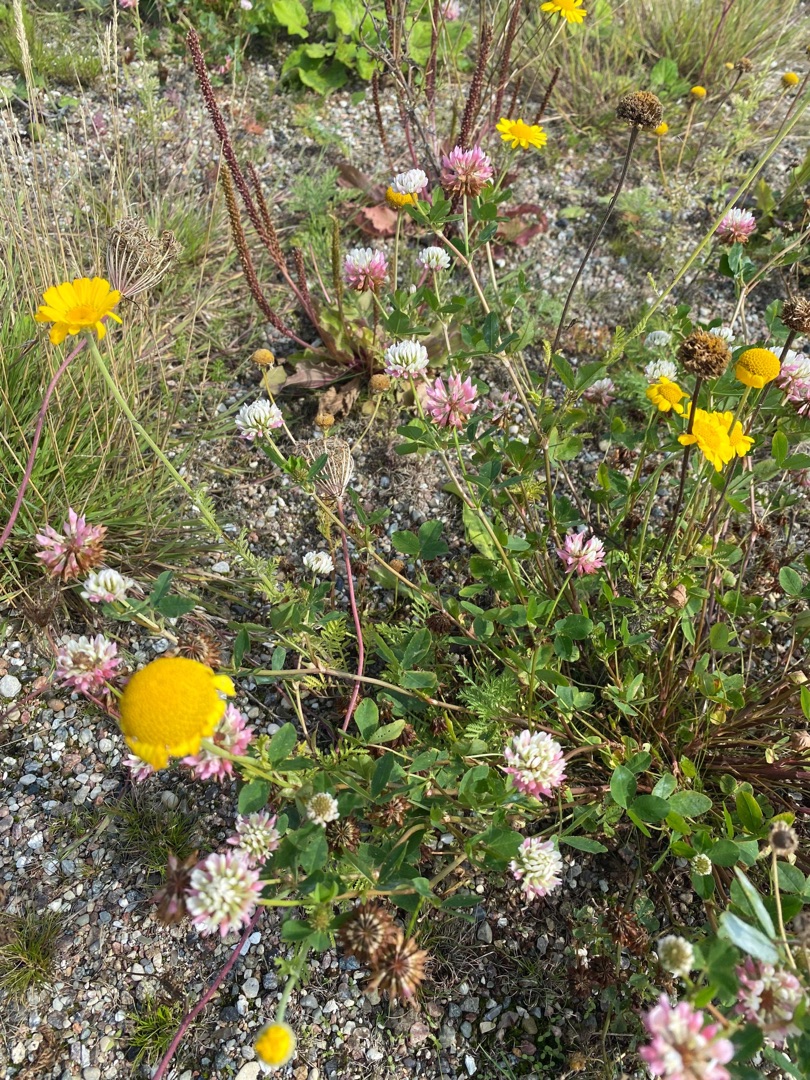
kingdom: Plantae
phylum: Tracheophyta
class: Magnoliopsida
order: Fabales
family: Fabaceae
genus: Trifolium
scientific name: Trifolium hybridum
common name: Alsike-kløver
